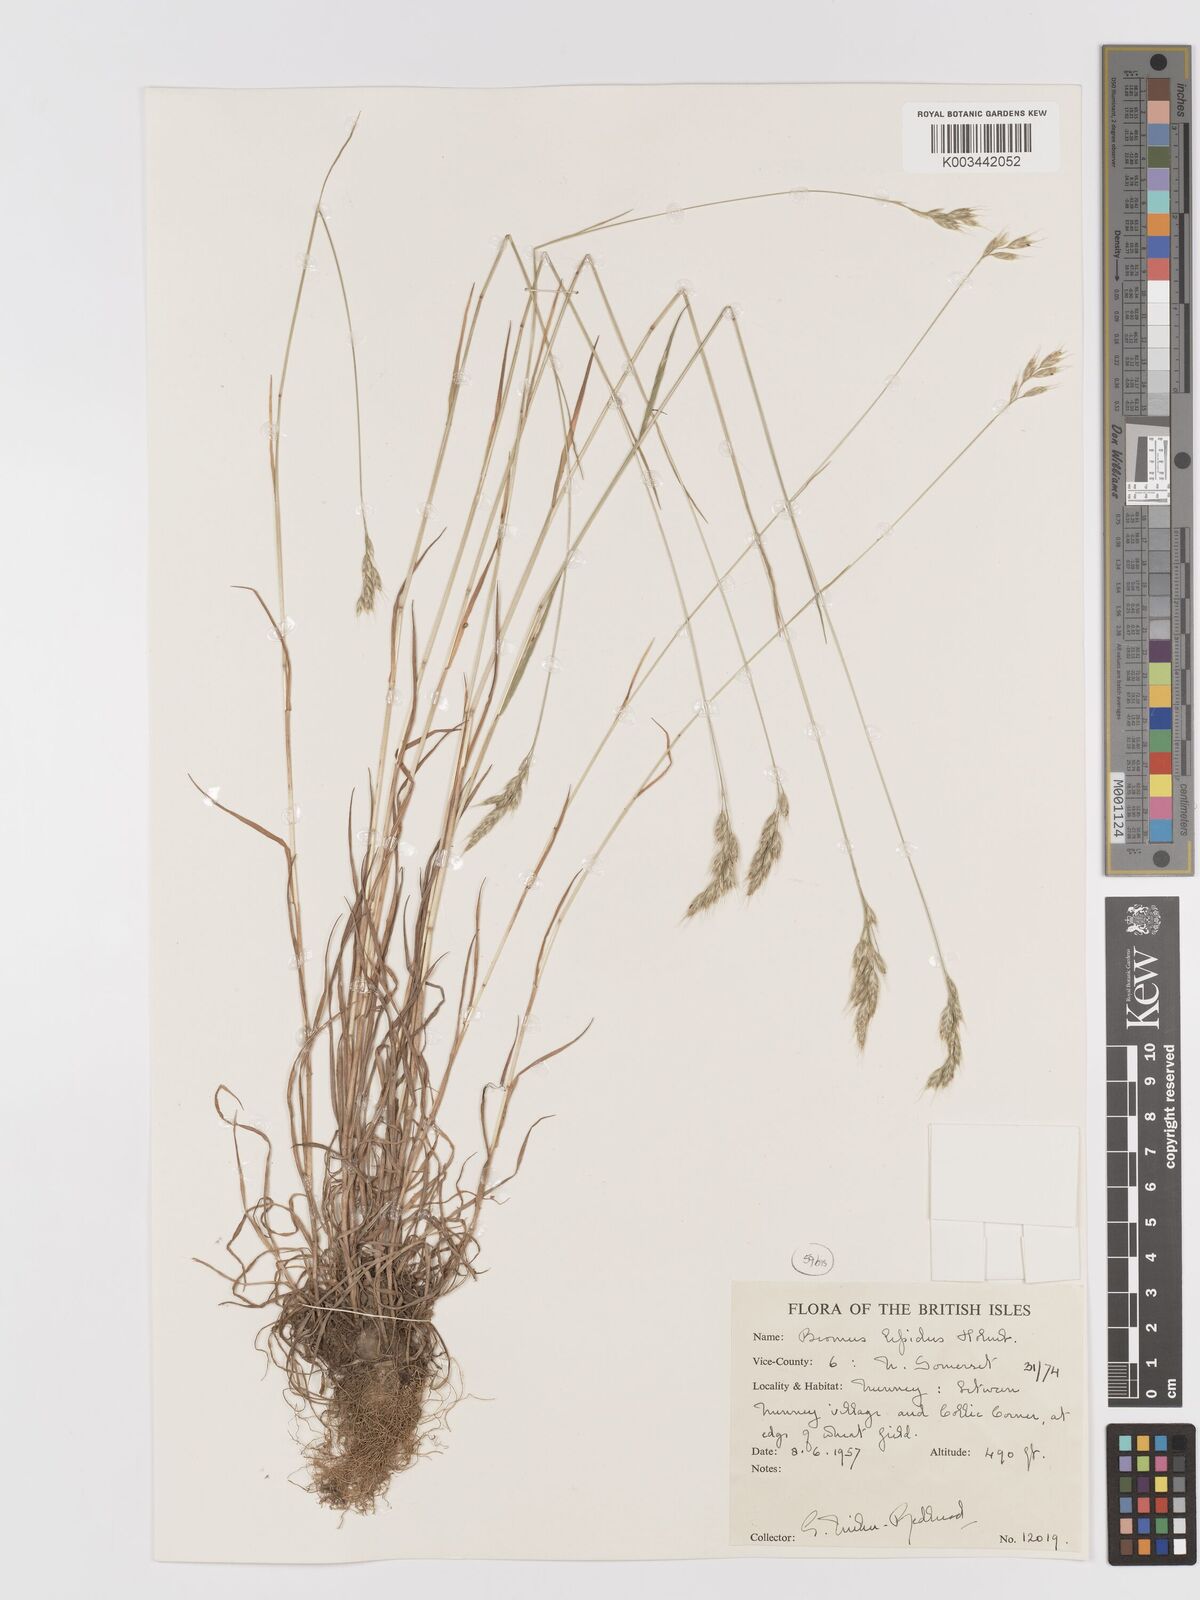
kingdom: Plantae
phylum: Tracheophyta
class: Liliopsida
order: Poales
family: Poaceae
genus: Bromus
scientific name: Bromus lepidus
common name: Slender soft-brome
